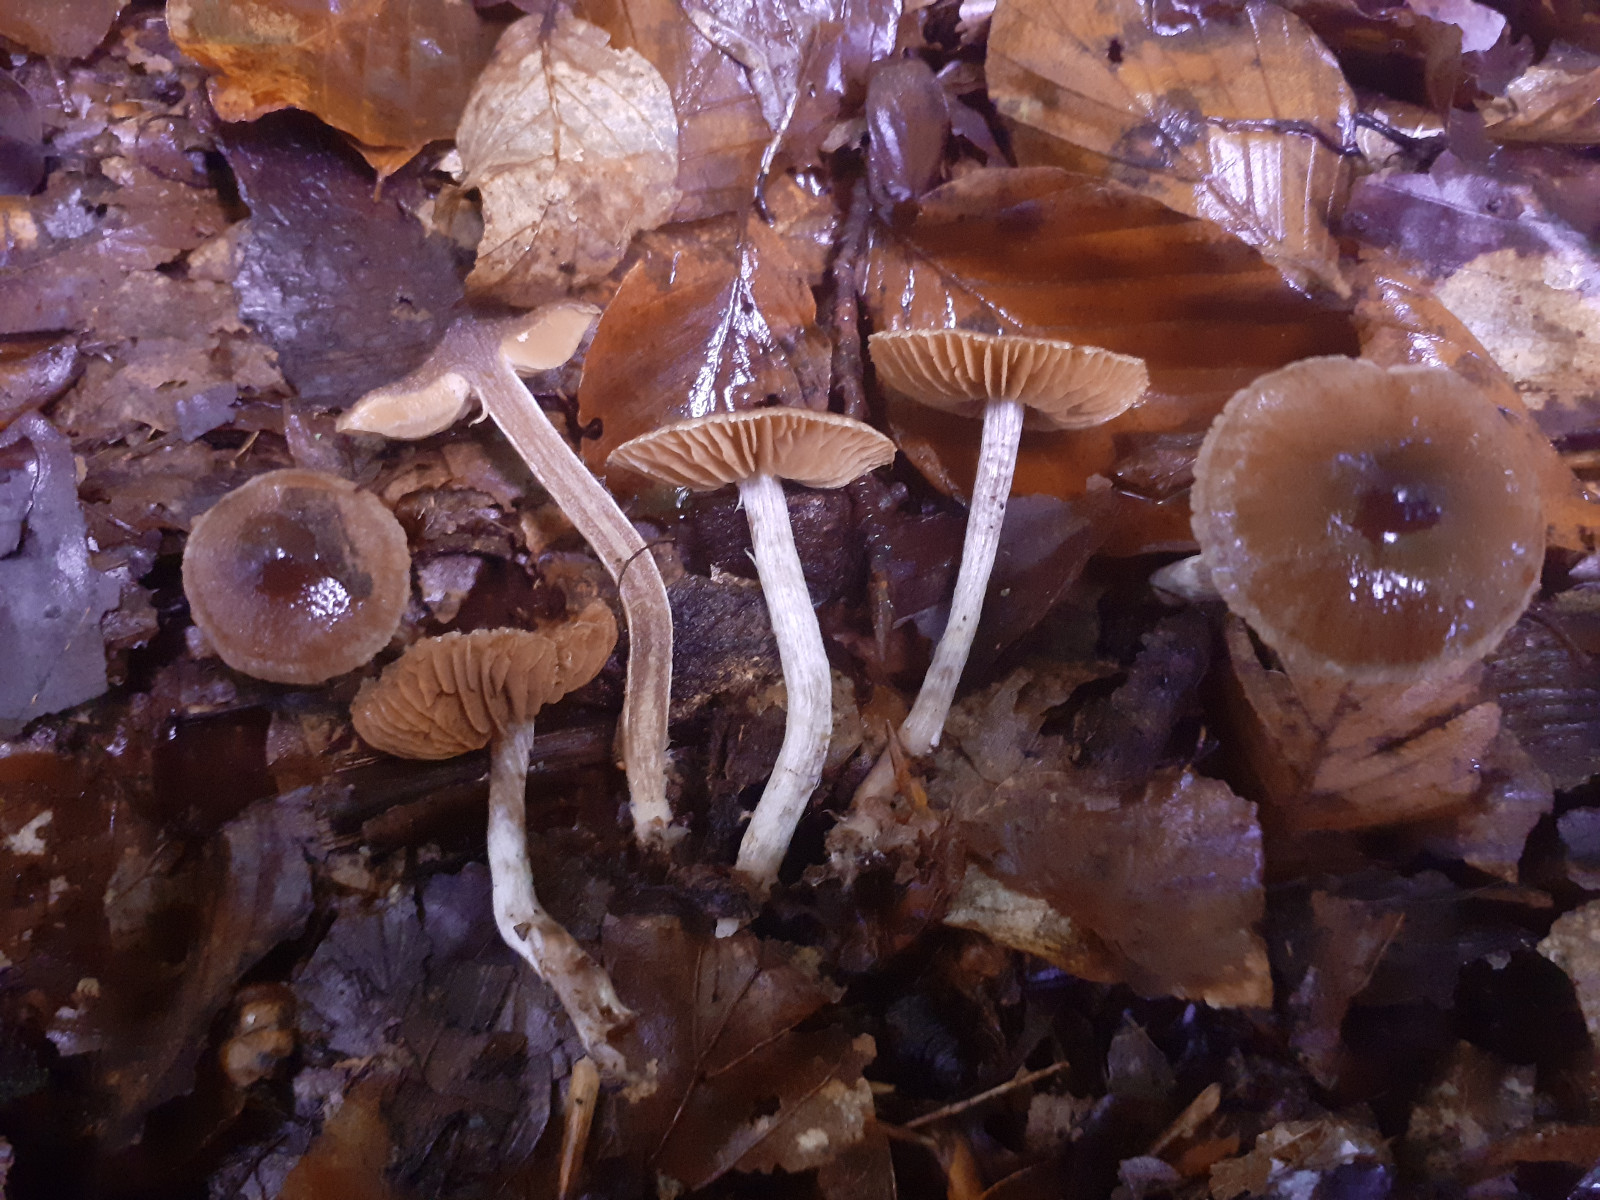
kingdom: Fungi
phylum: Basidiomycota
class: Agaricomycetes
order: Agaricales
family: Cortinariaceae
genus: Cortinarius
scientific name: Cortinarius hirtus
